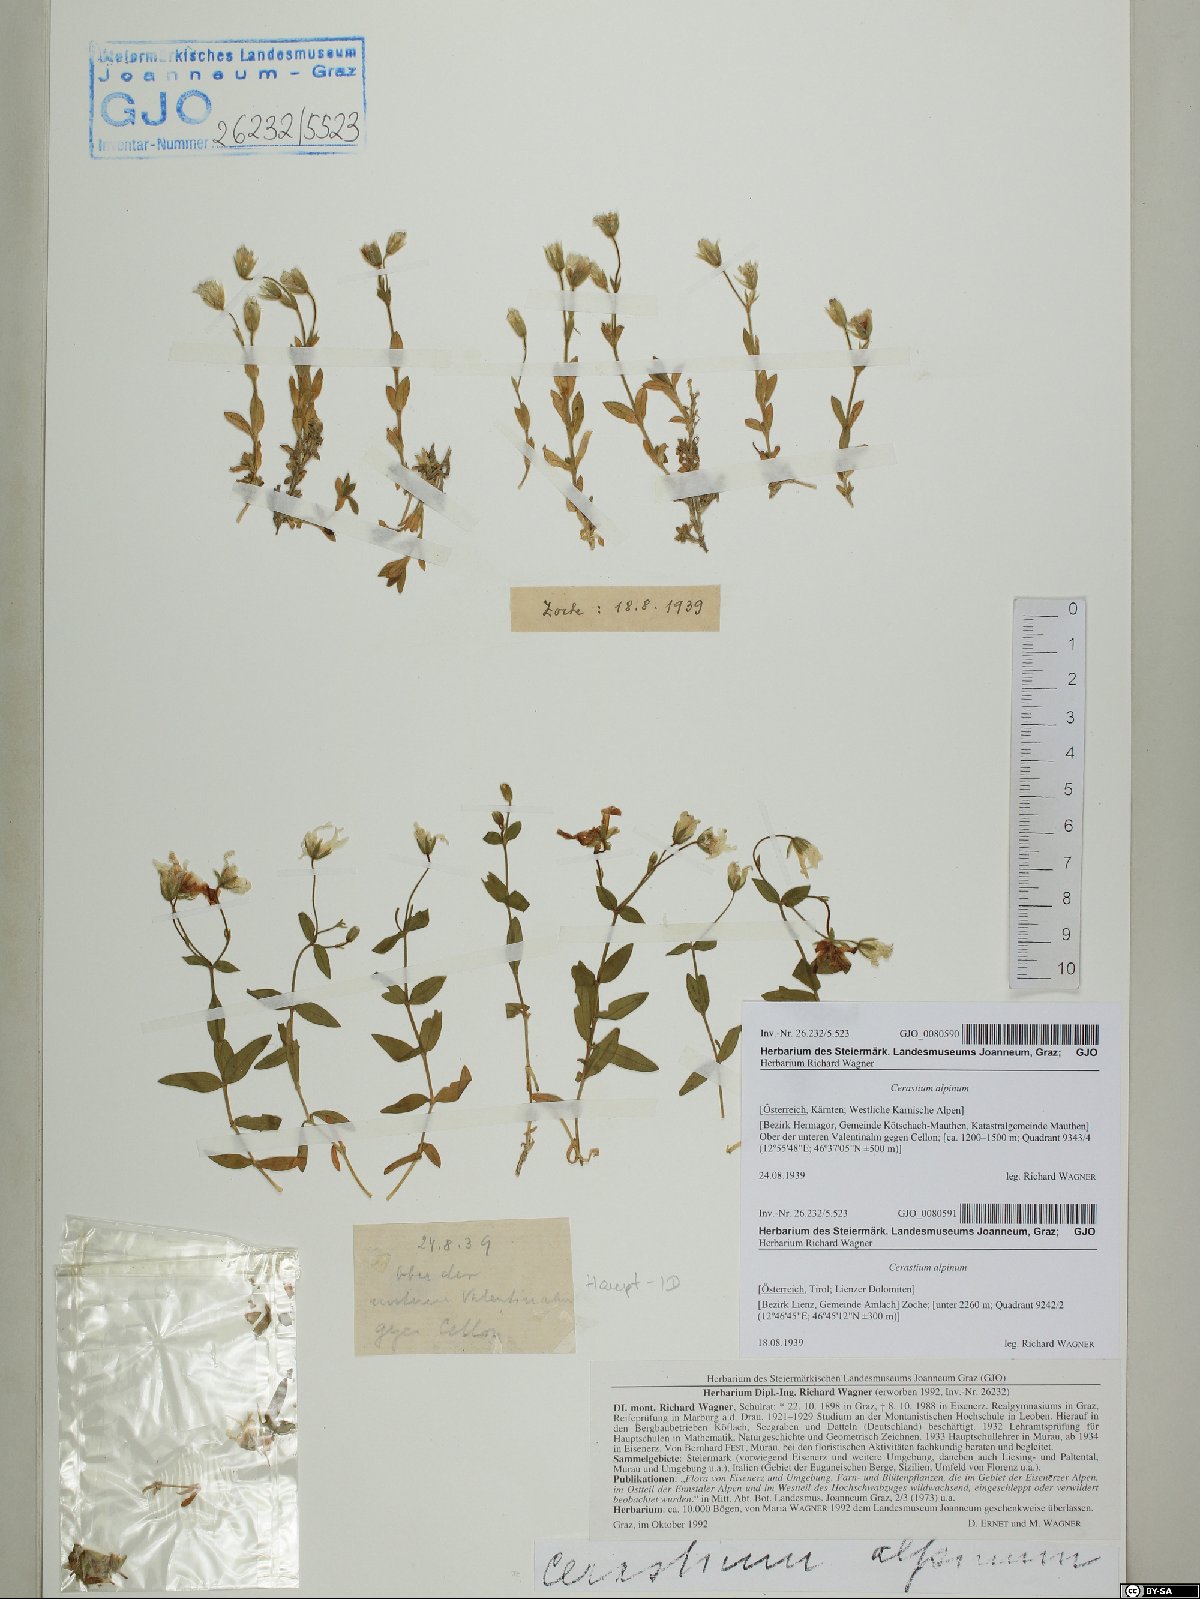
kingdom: Plantae
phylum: Tracheophyta
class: Magnoliopsida
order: Caryophyllales
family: Caryophyllaceae
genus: Cerastium
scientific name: Cerastium alpinum
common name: Alpine mouse-ear
